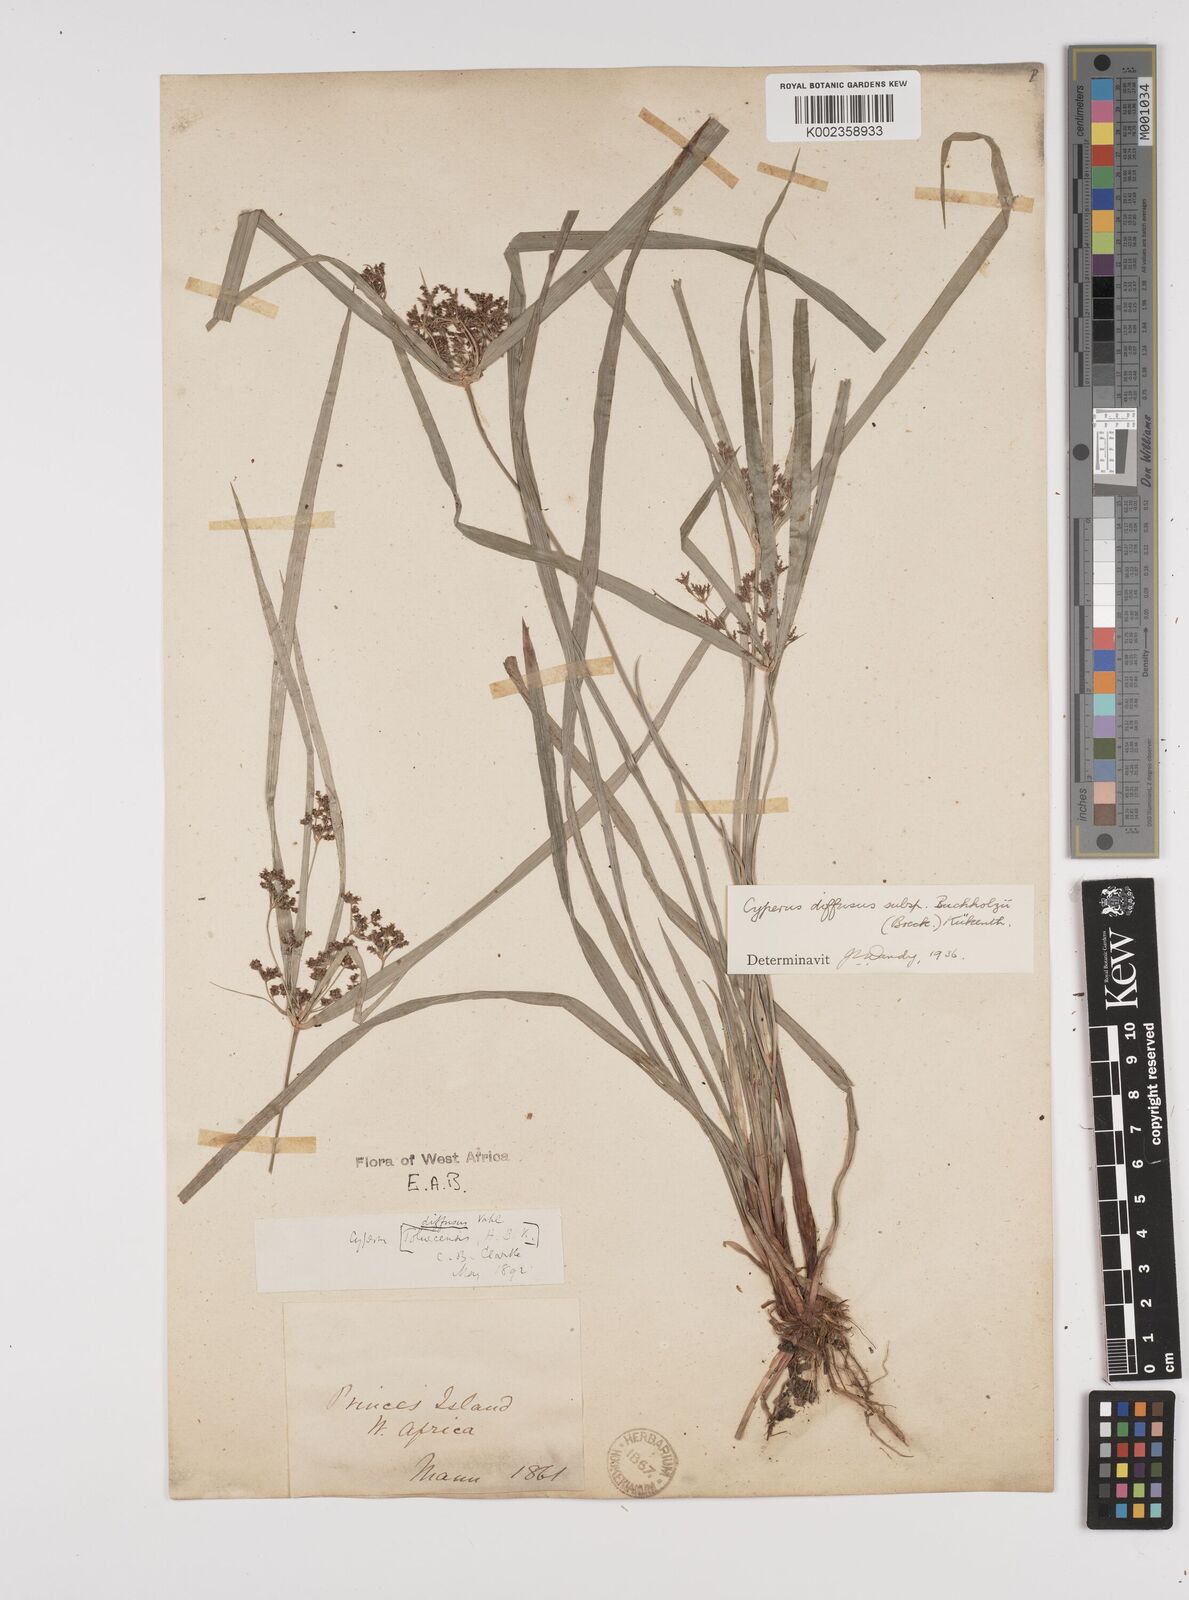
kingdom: Plantae
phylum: Tracheophyta
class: Liliopsida
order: Poales
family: Cyperaceae
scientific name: Cyperaceae
